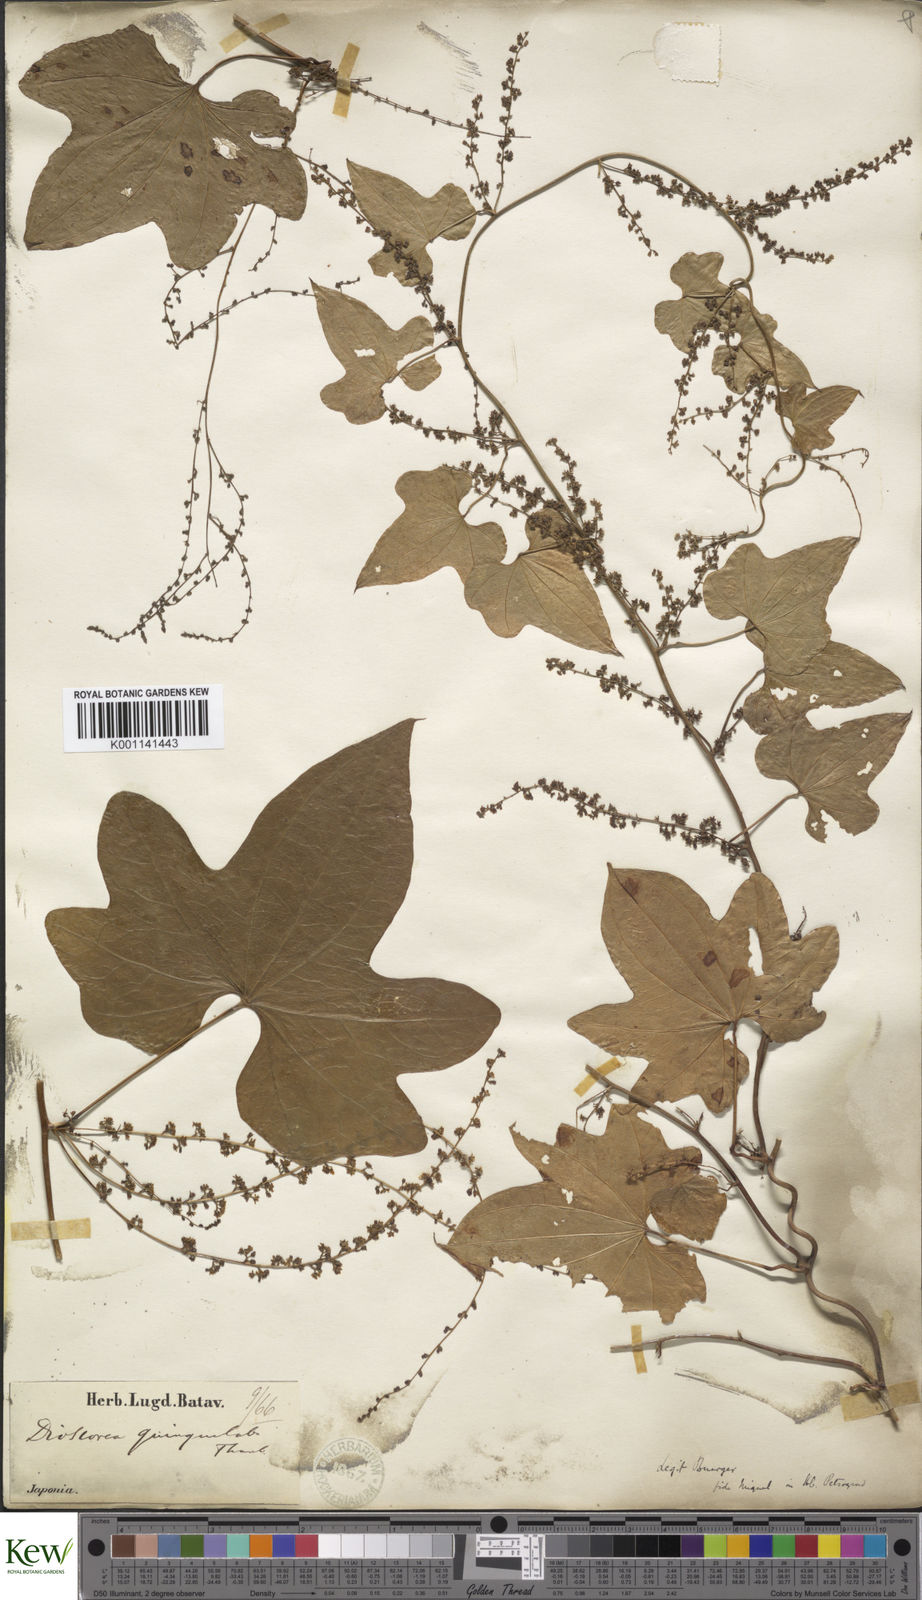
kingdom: Plantae
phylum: Tracheophyta
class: Liliopsida
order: Dioscoreales
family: Dioscoreaceae
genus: Dioscorea
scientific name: Dioscorea quinquelobata
